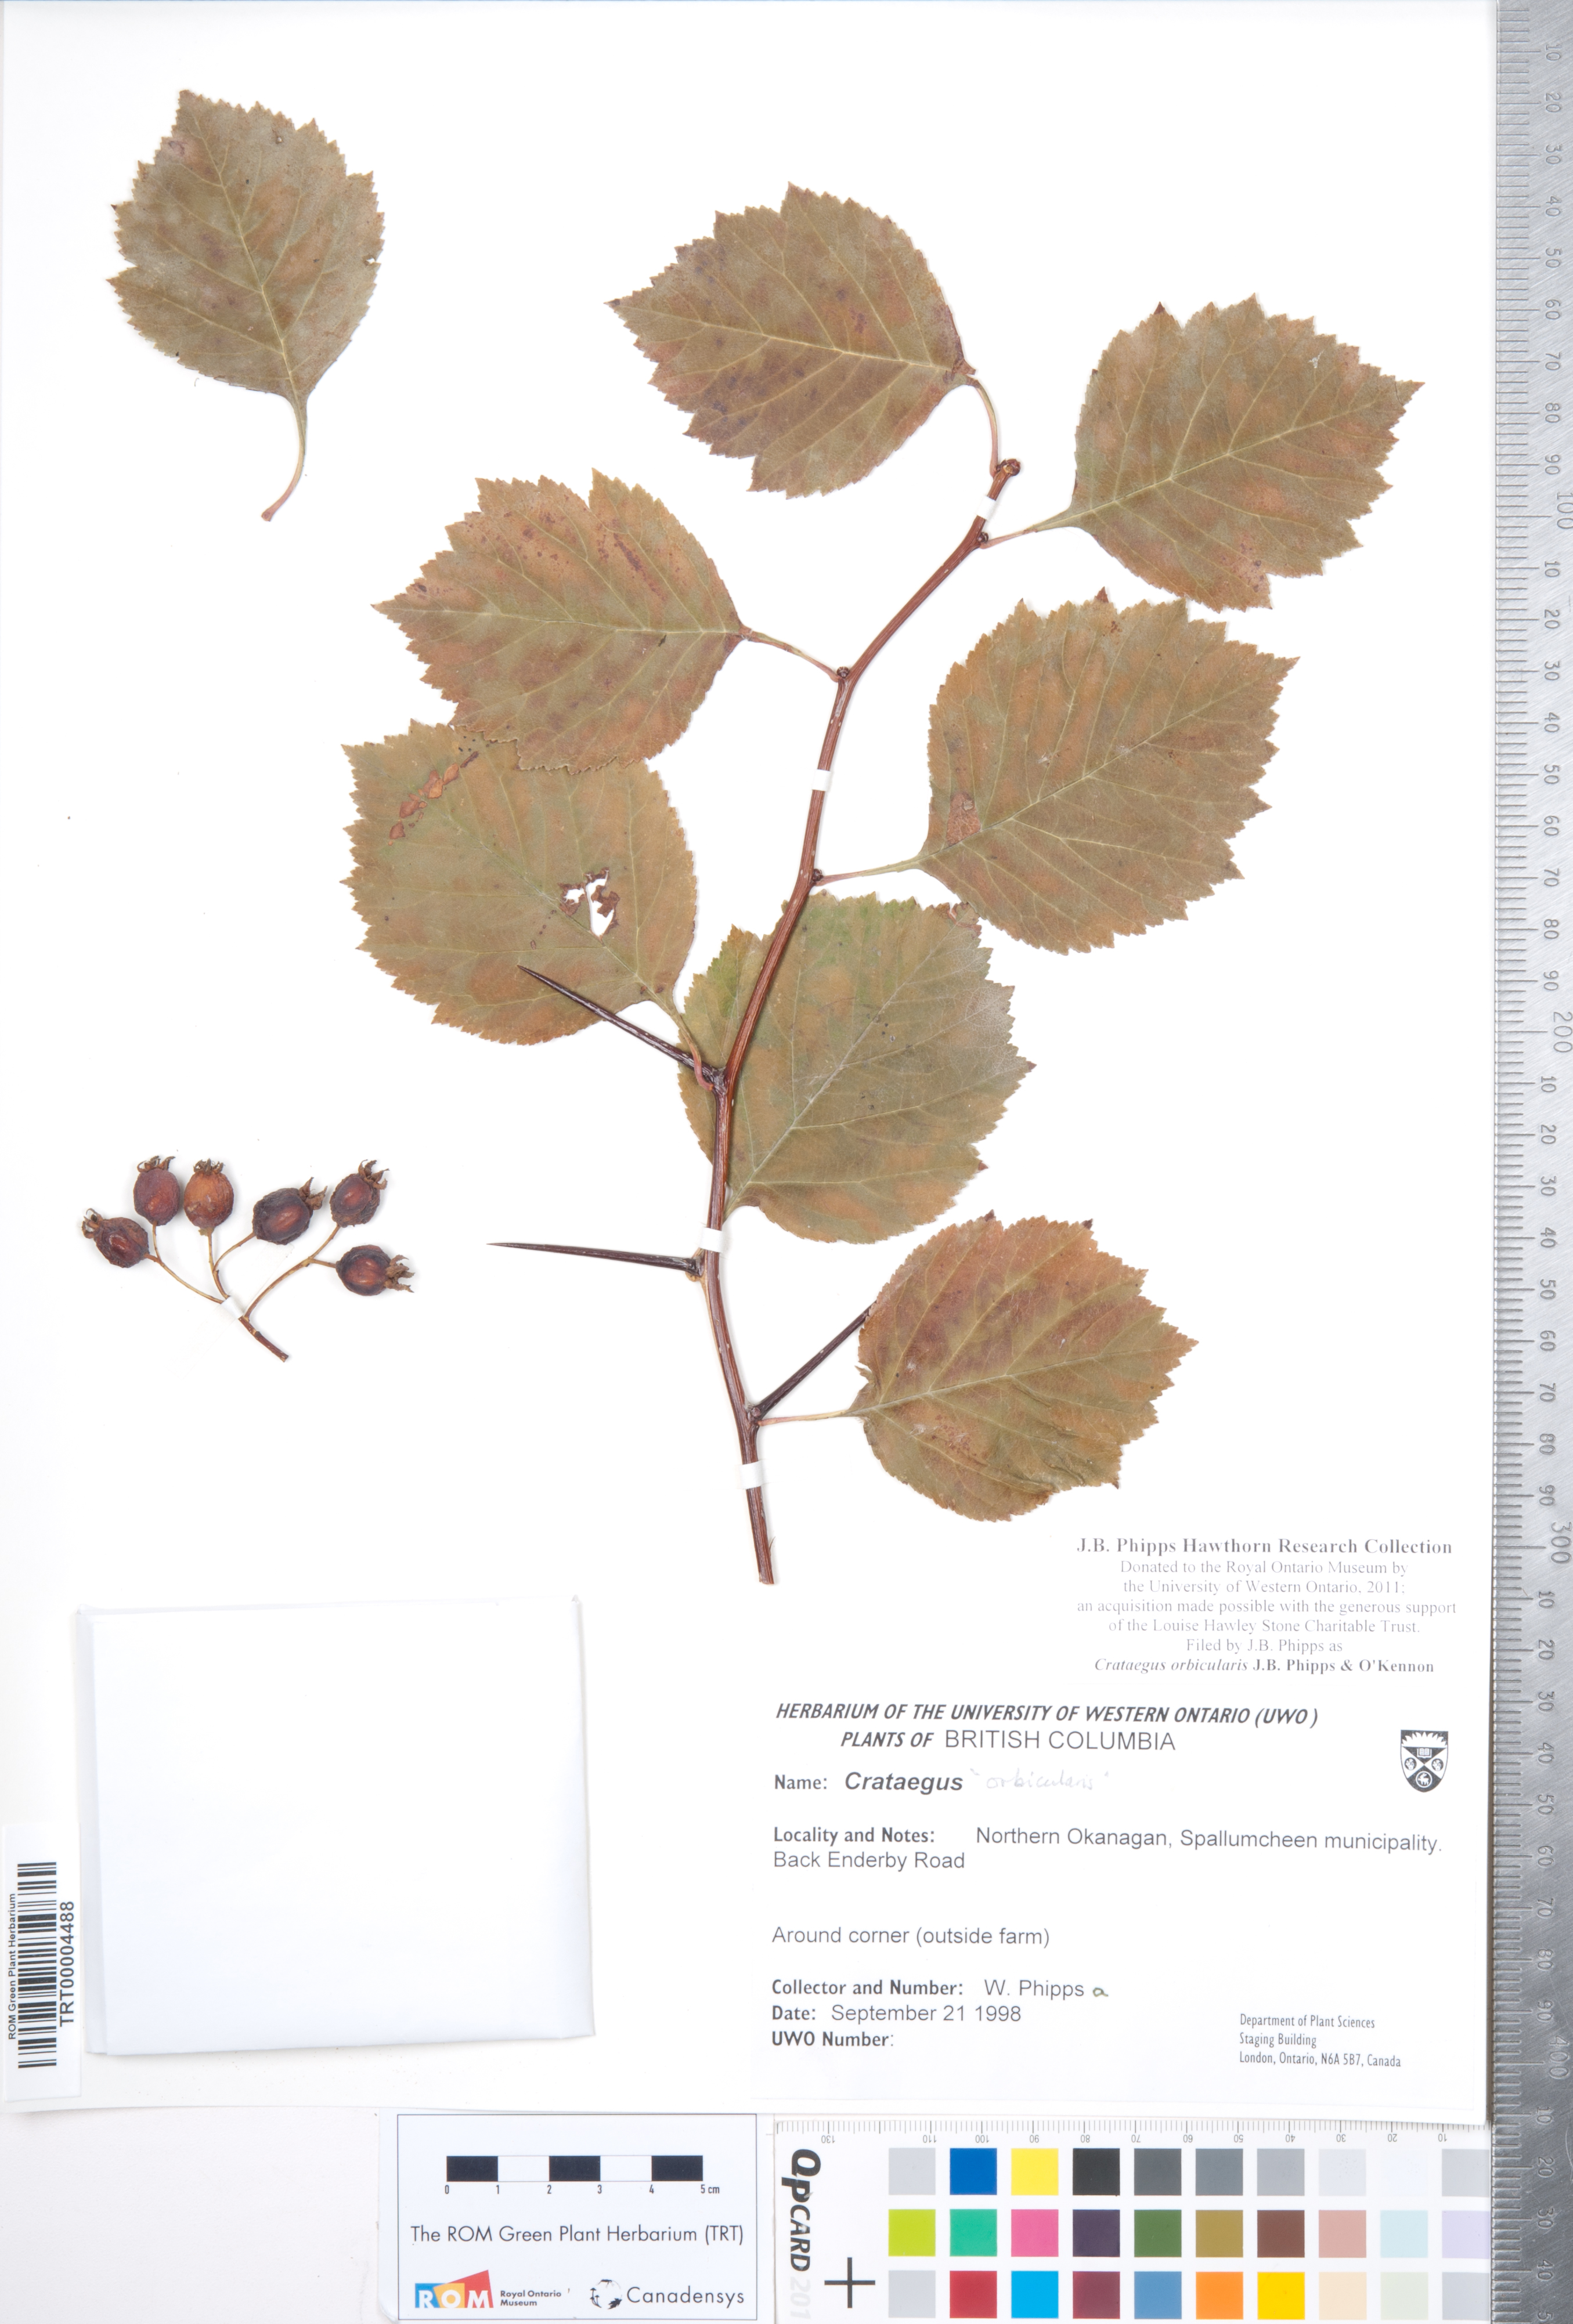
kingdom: Plantae
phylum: Tracheophyta
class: Magnoliopsida
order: Rosales
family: Rosaceae
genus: Crataegus
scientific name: Crataegus orbicularis
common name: Orbicular-leaved hawthorn
